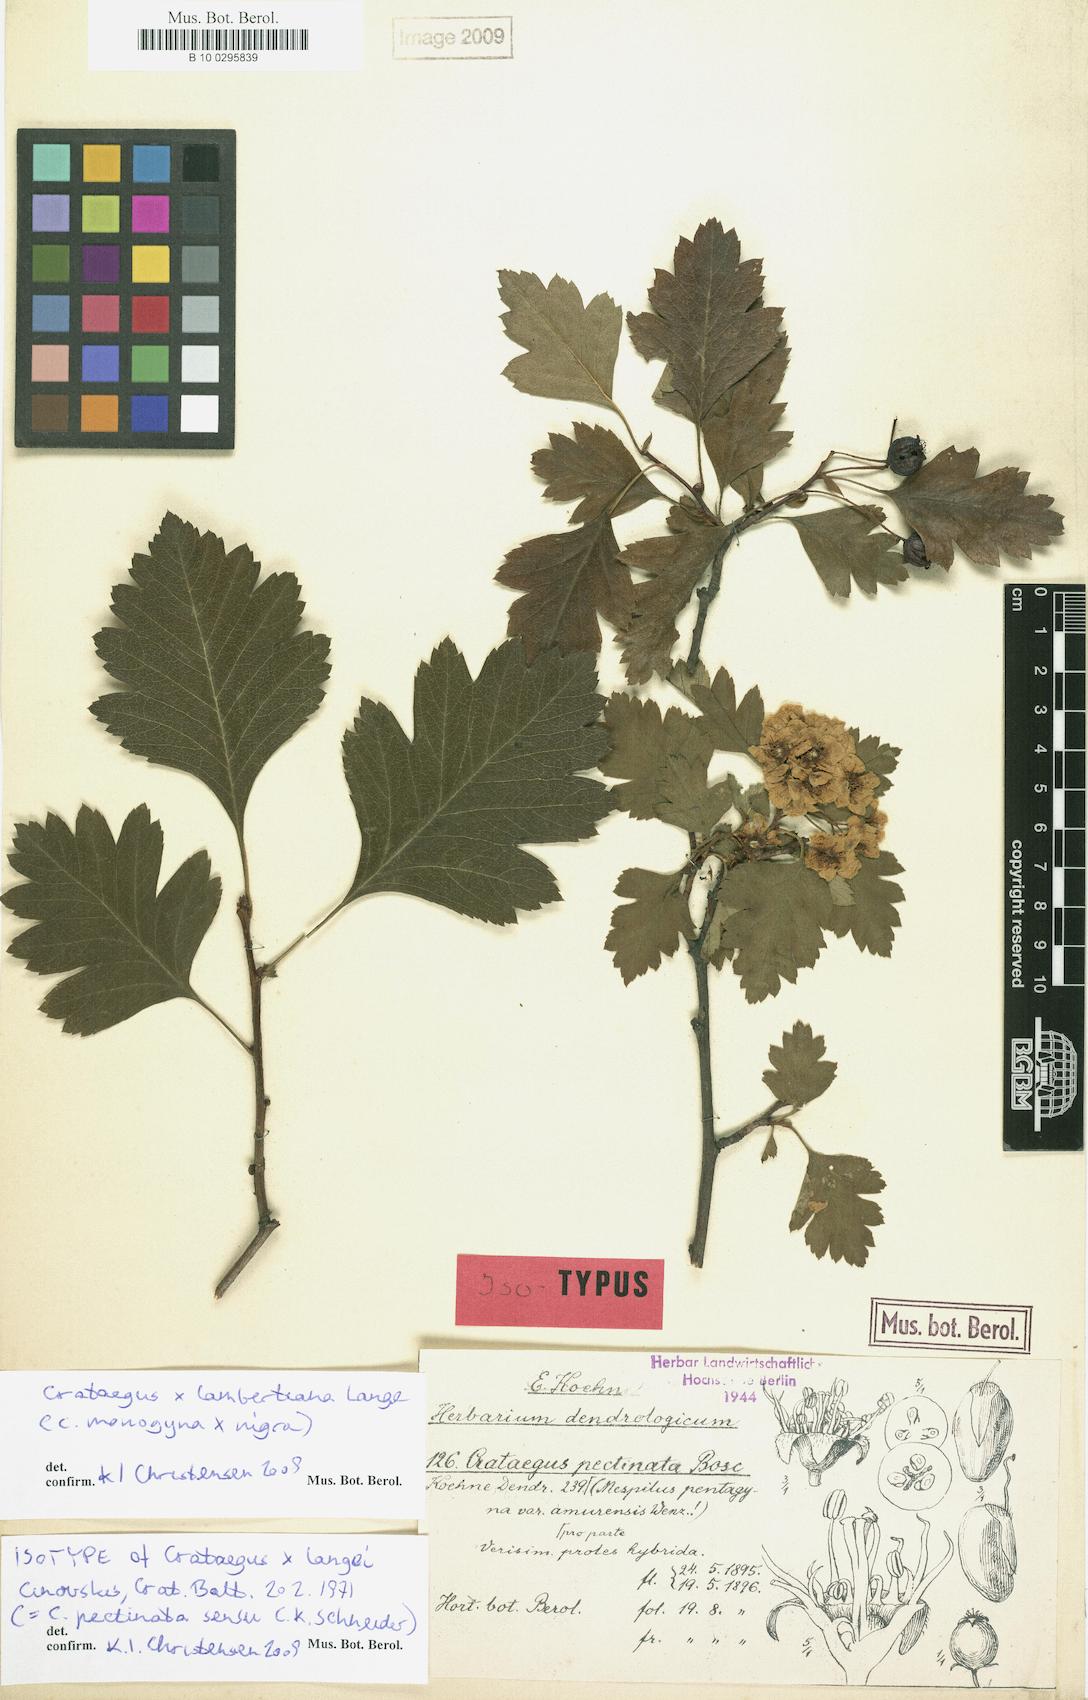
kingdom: Plantae
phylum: Tracheophyta
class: Magnoliopsida
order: Rosales
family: Rosaceae
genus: Crataegus
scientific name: Crataegus lambertiana
